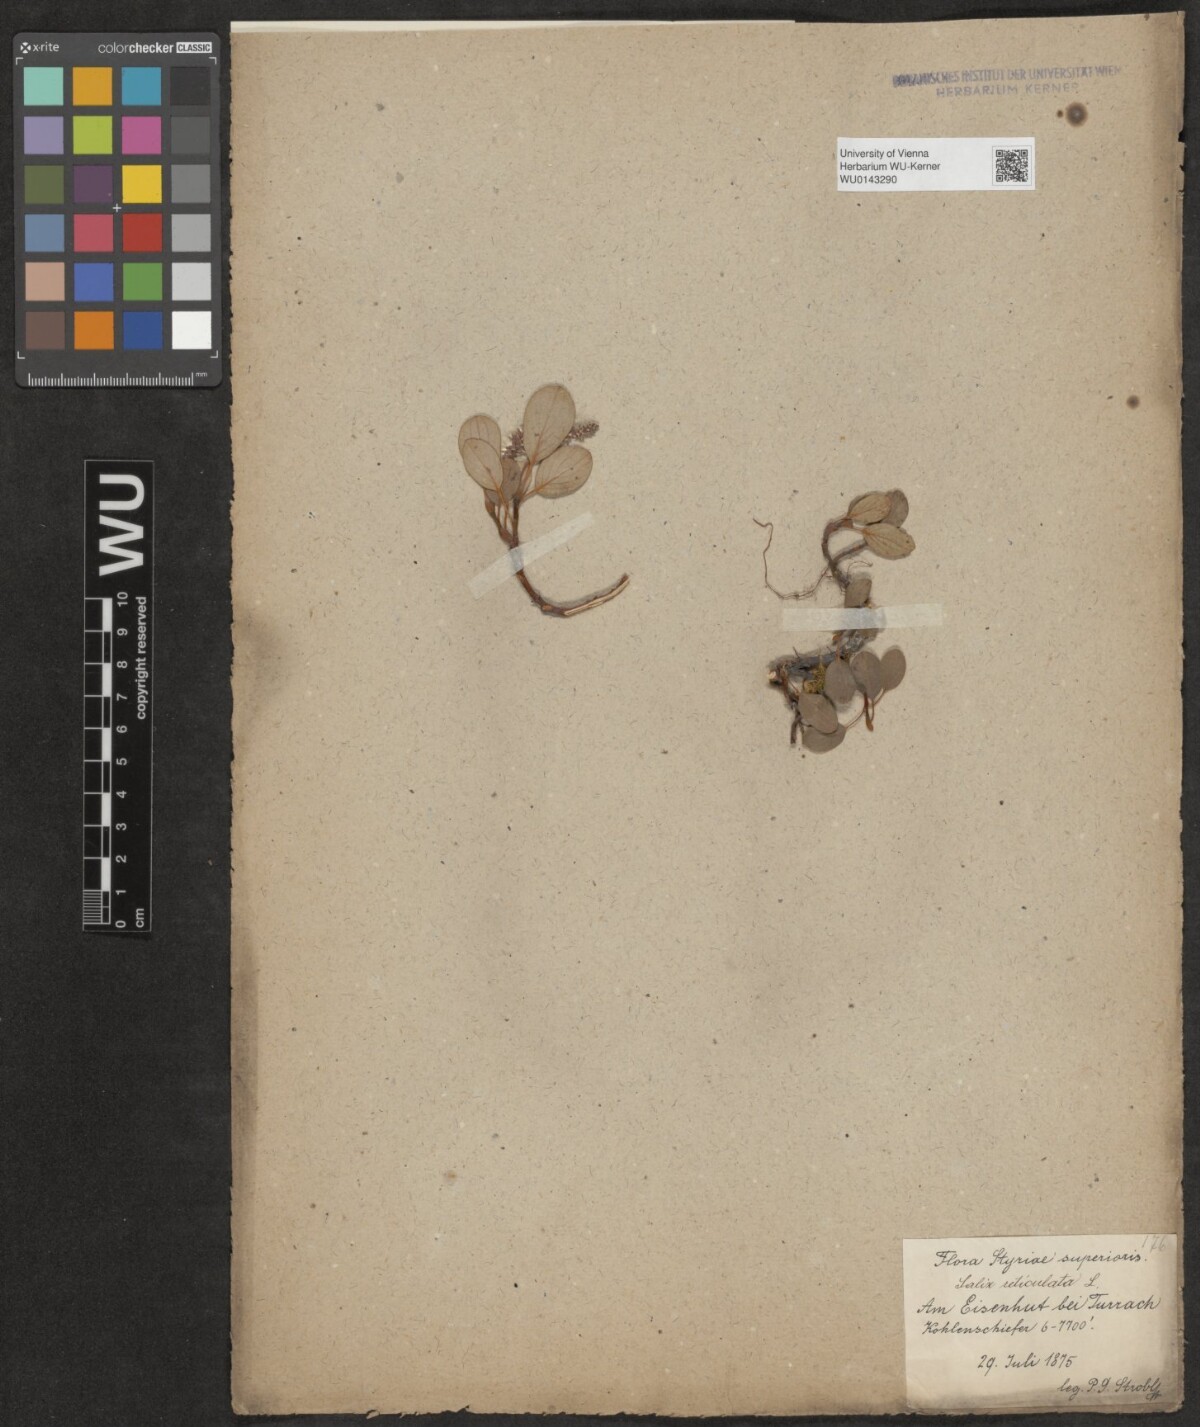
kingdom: Plantae
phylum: Tracheophyta
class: Magnoliopsida
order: Malpighiales
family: Salicaceae
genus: Salix
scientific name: Salix reticulata
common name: Net-leaved willow
